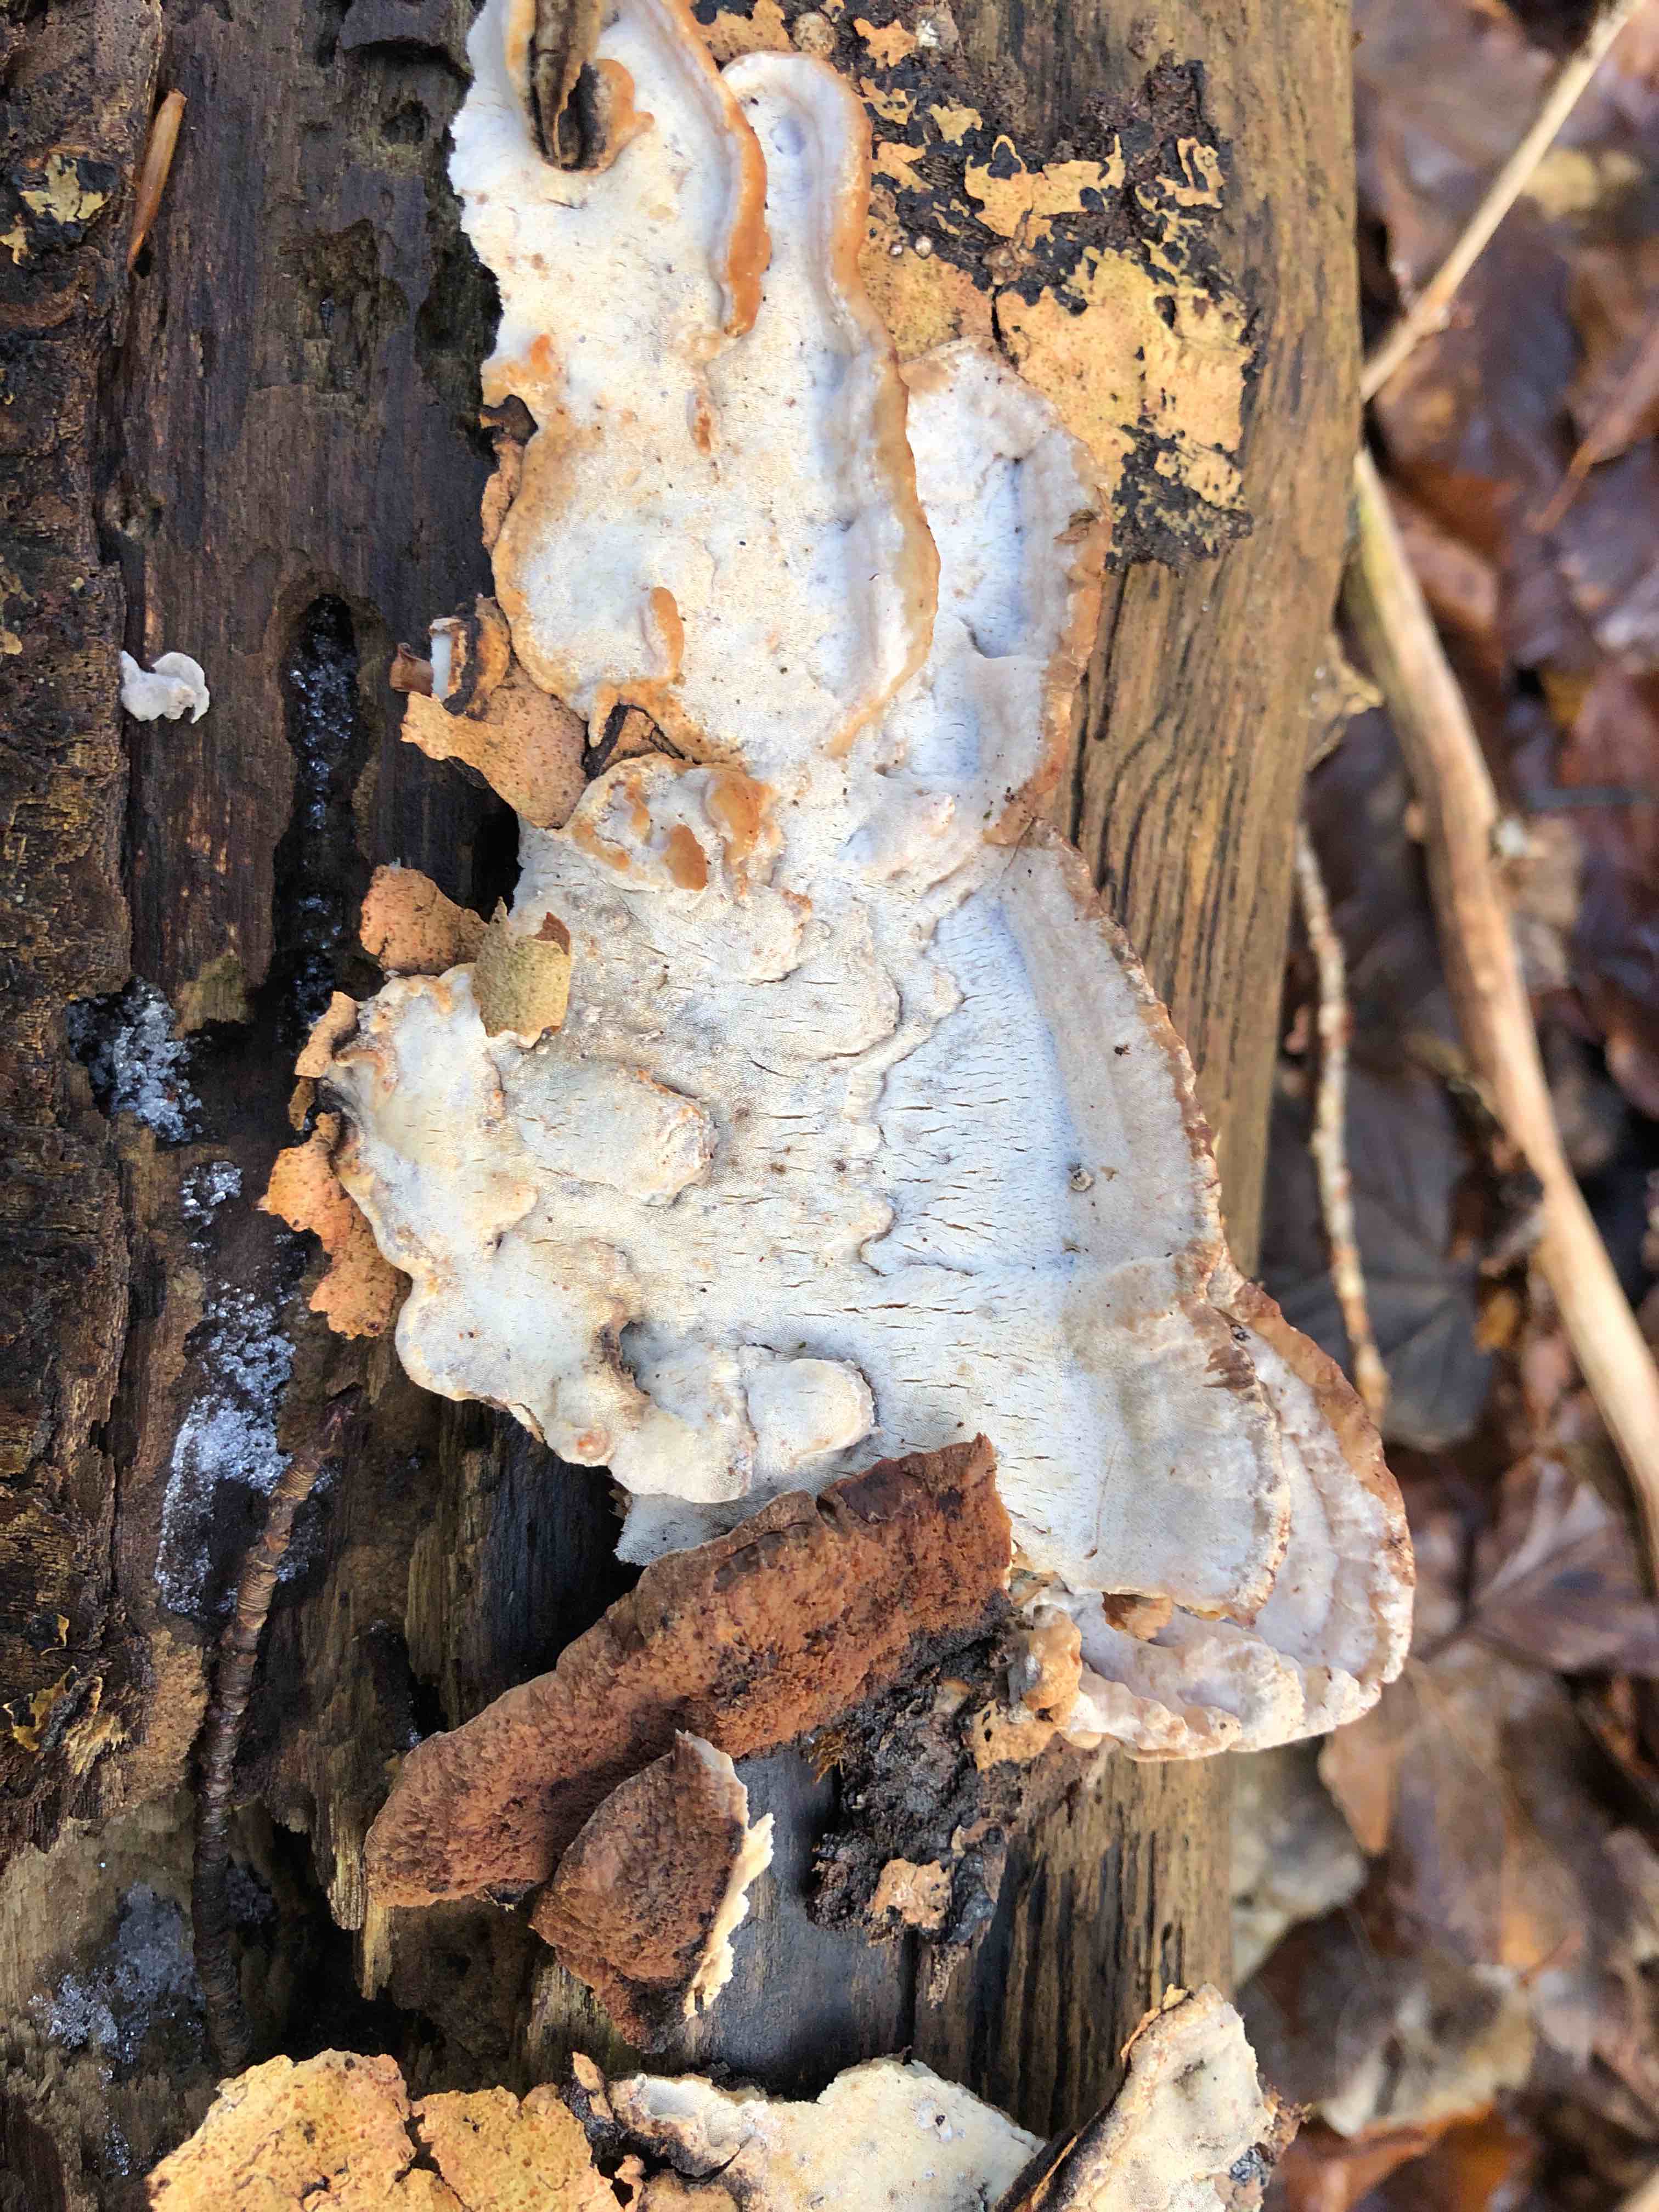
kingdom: Fungi
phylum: Basidiomycota
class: Agaricomycetes
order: Polyporales
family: Incrustoporiaceae
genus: Skeletocutis
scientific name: Skeletocutis nemoralis
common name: stor krystalporesvamp
